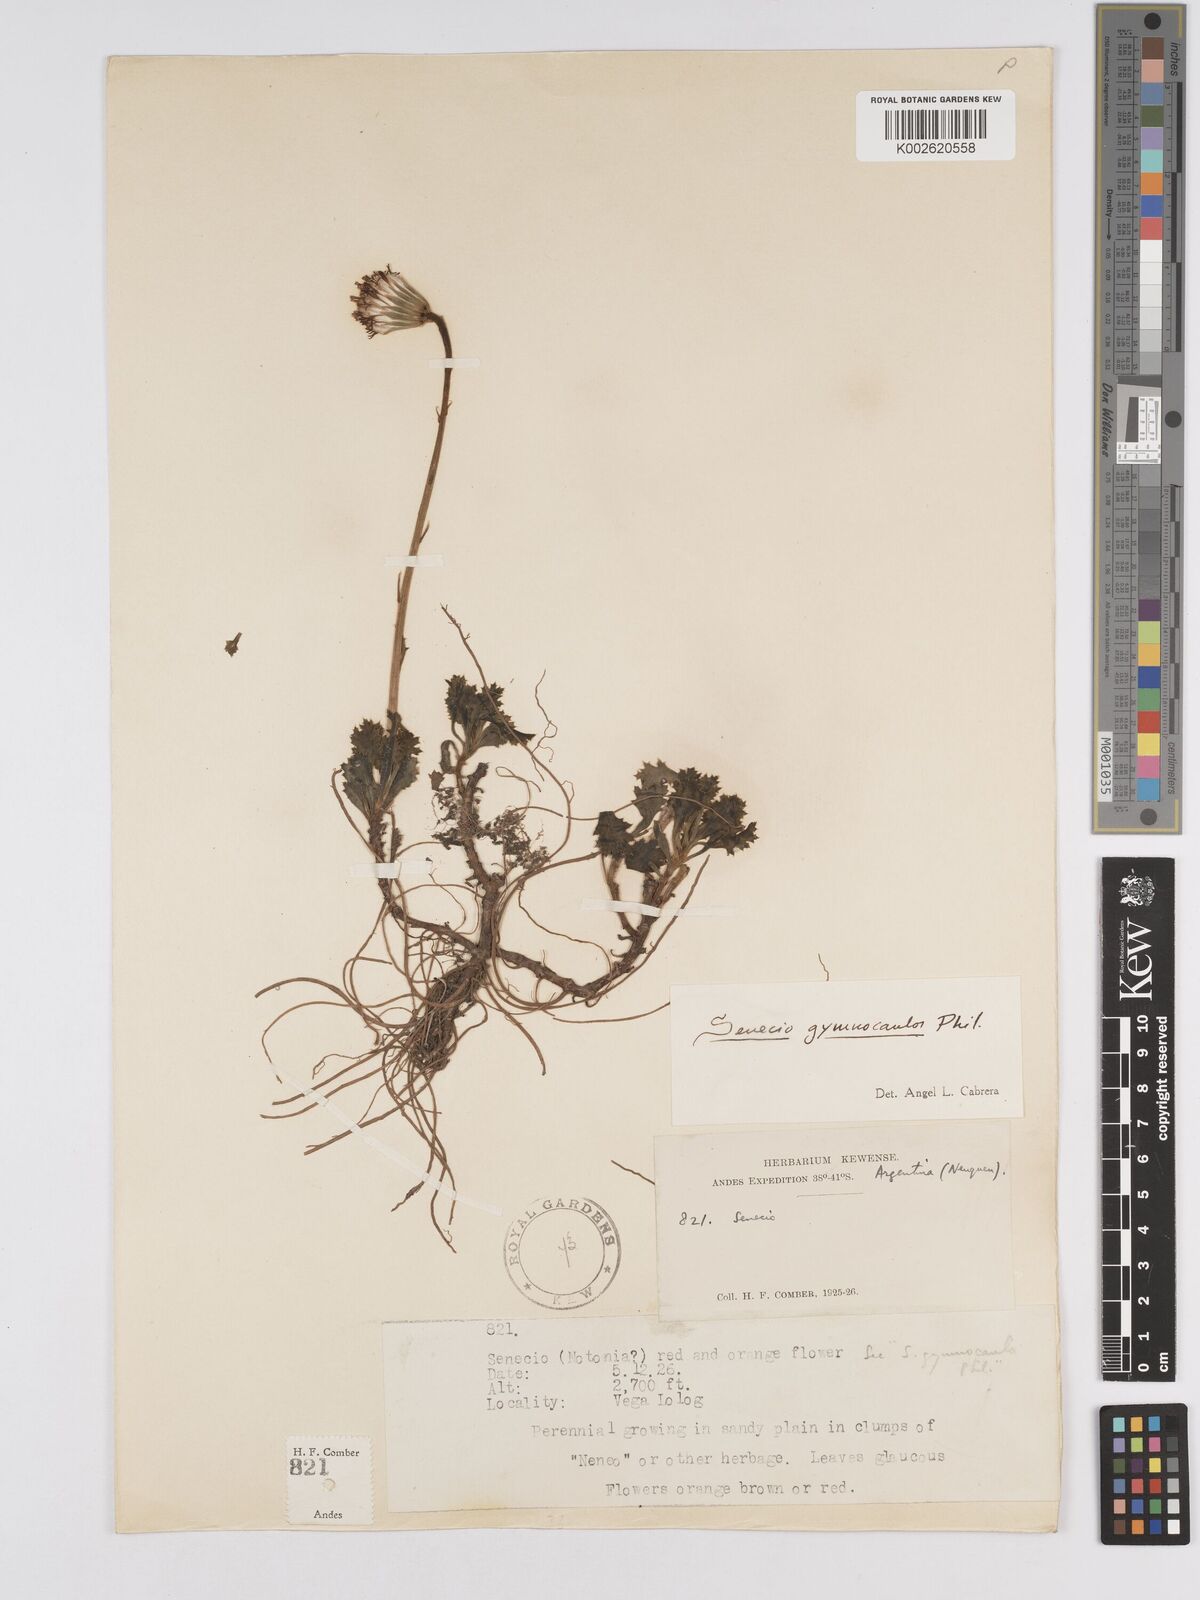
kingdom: Plantae
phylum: Tracheophyta
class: Magnoliopsida
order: Asterales
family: Asteraceae
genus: Senecio
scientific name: Senecio kingii
